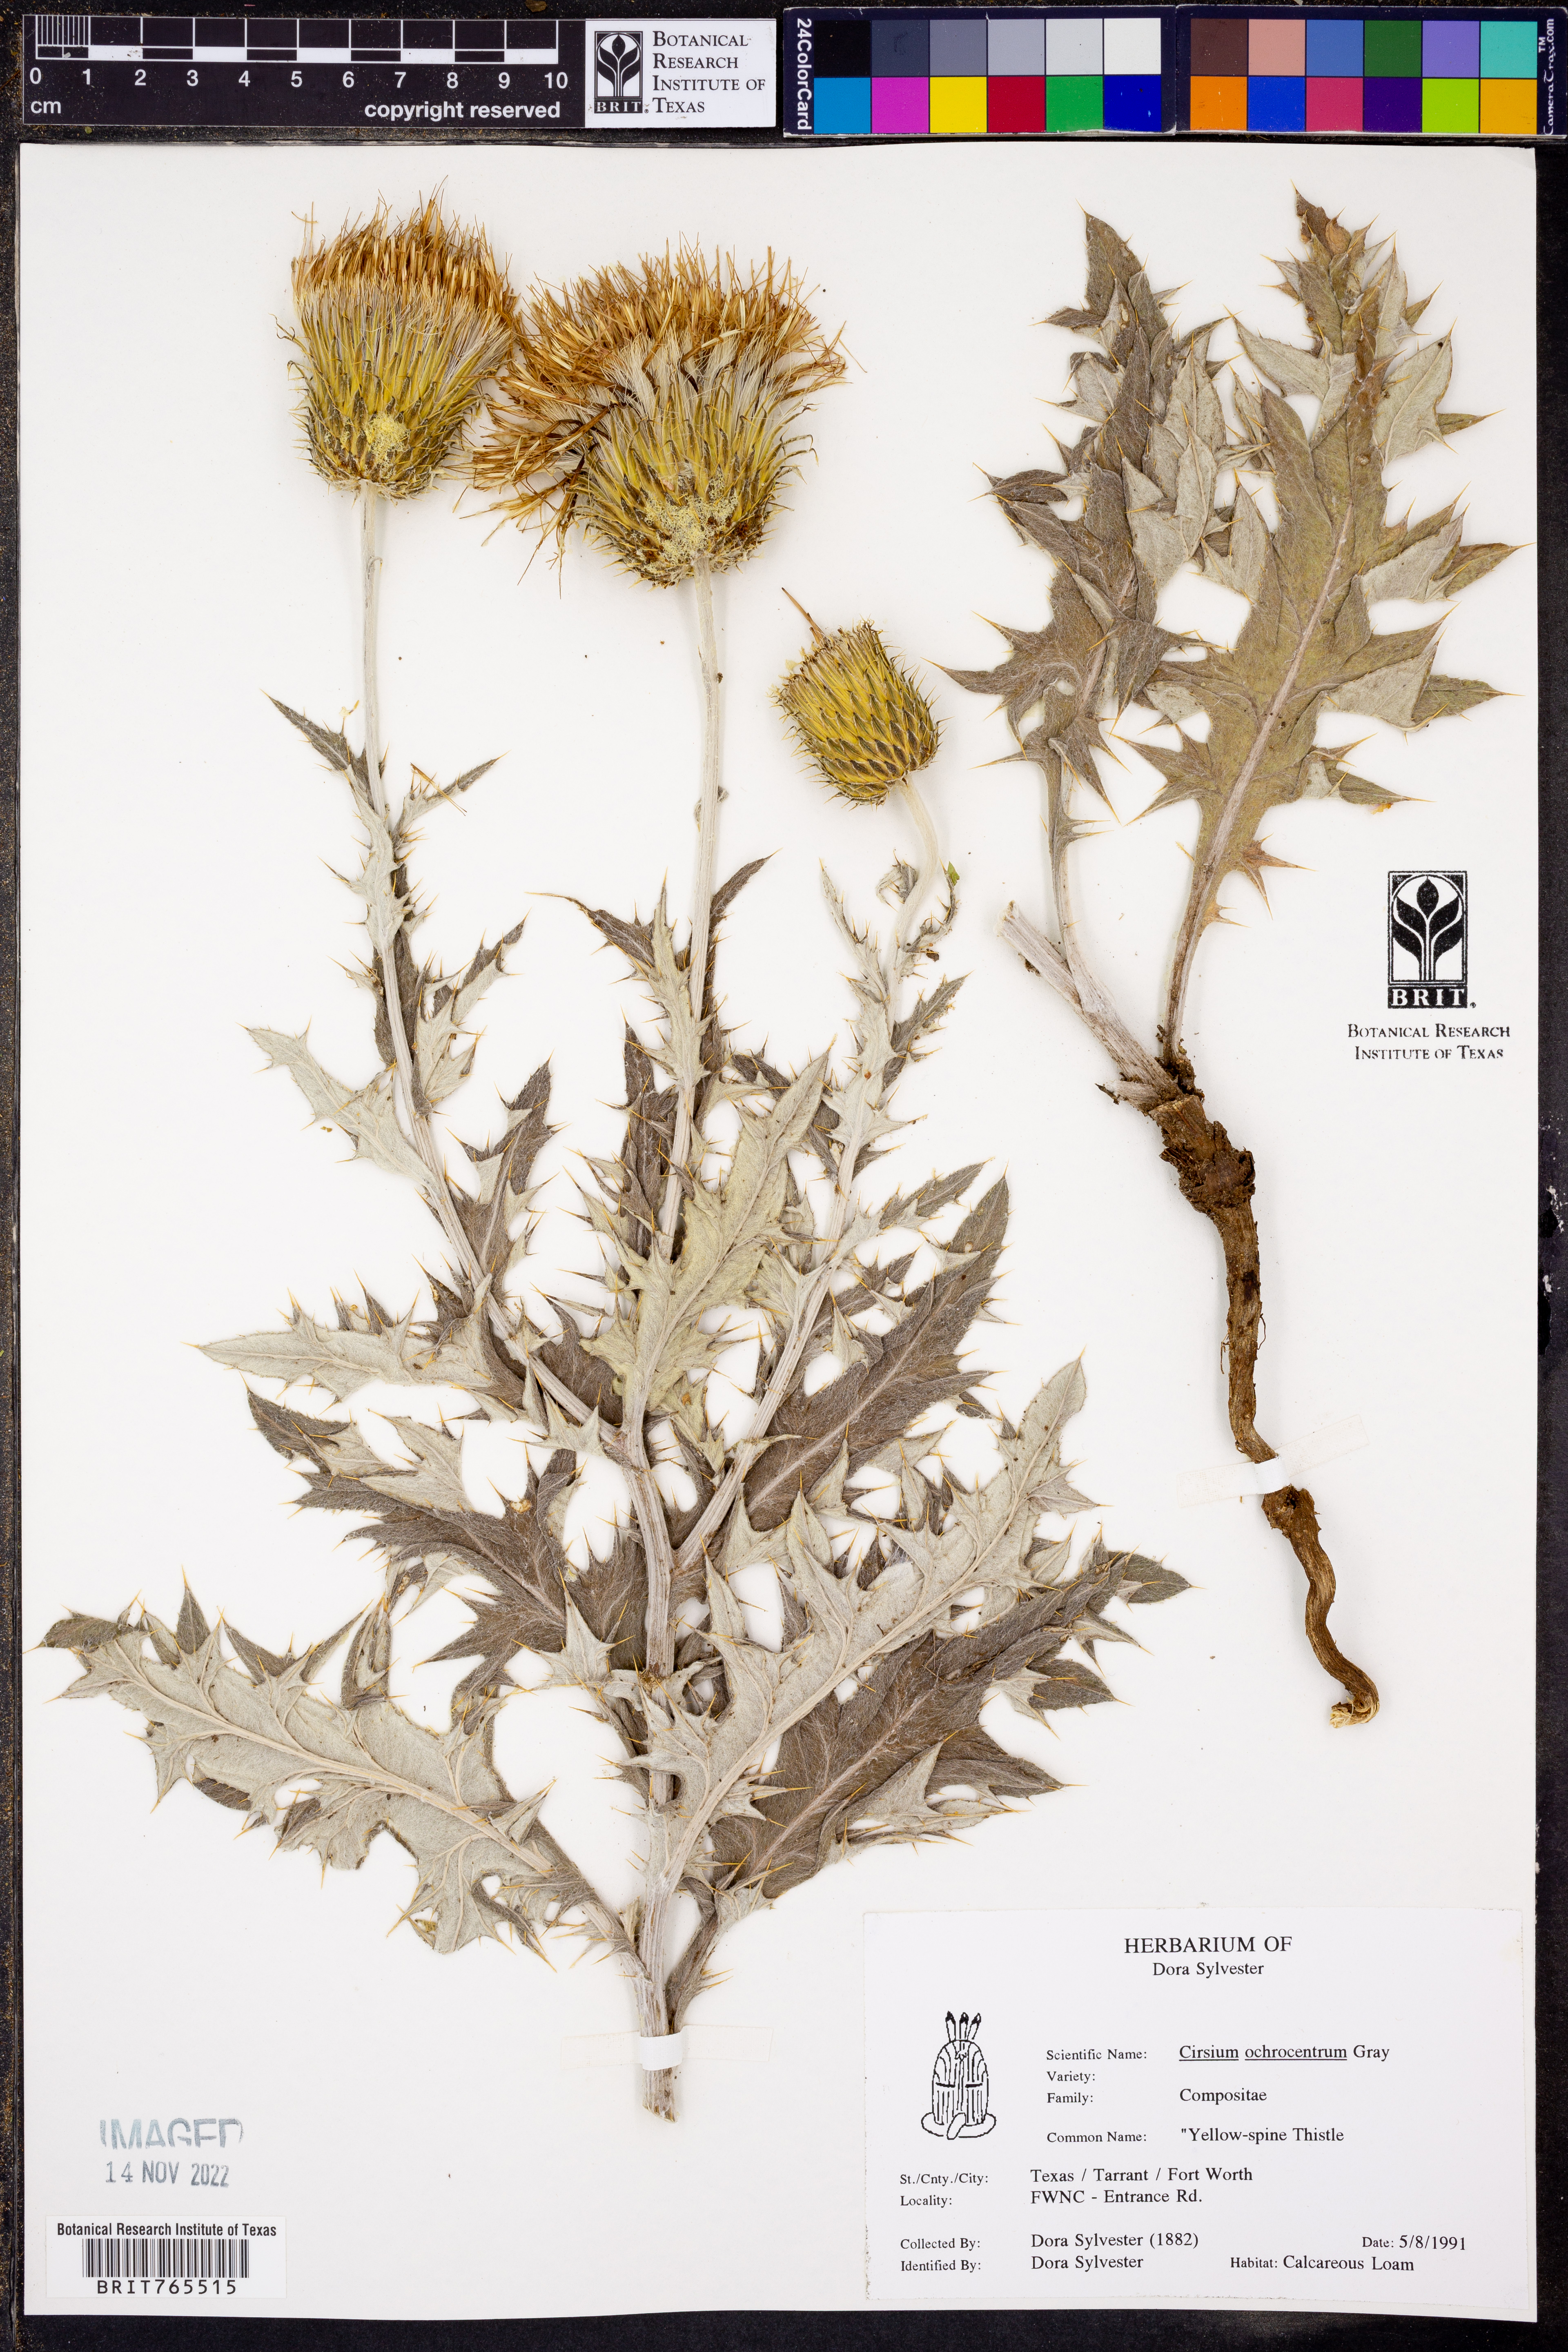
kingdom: Plantae
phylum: Tracheophyta
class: Magnoliopsida
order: Asterales
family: Asteraceae
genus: Cirsium
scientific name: Cirsium ochrocentrum
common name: Yellow-spine thistle
